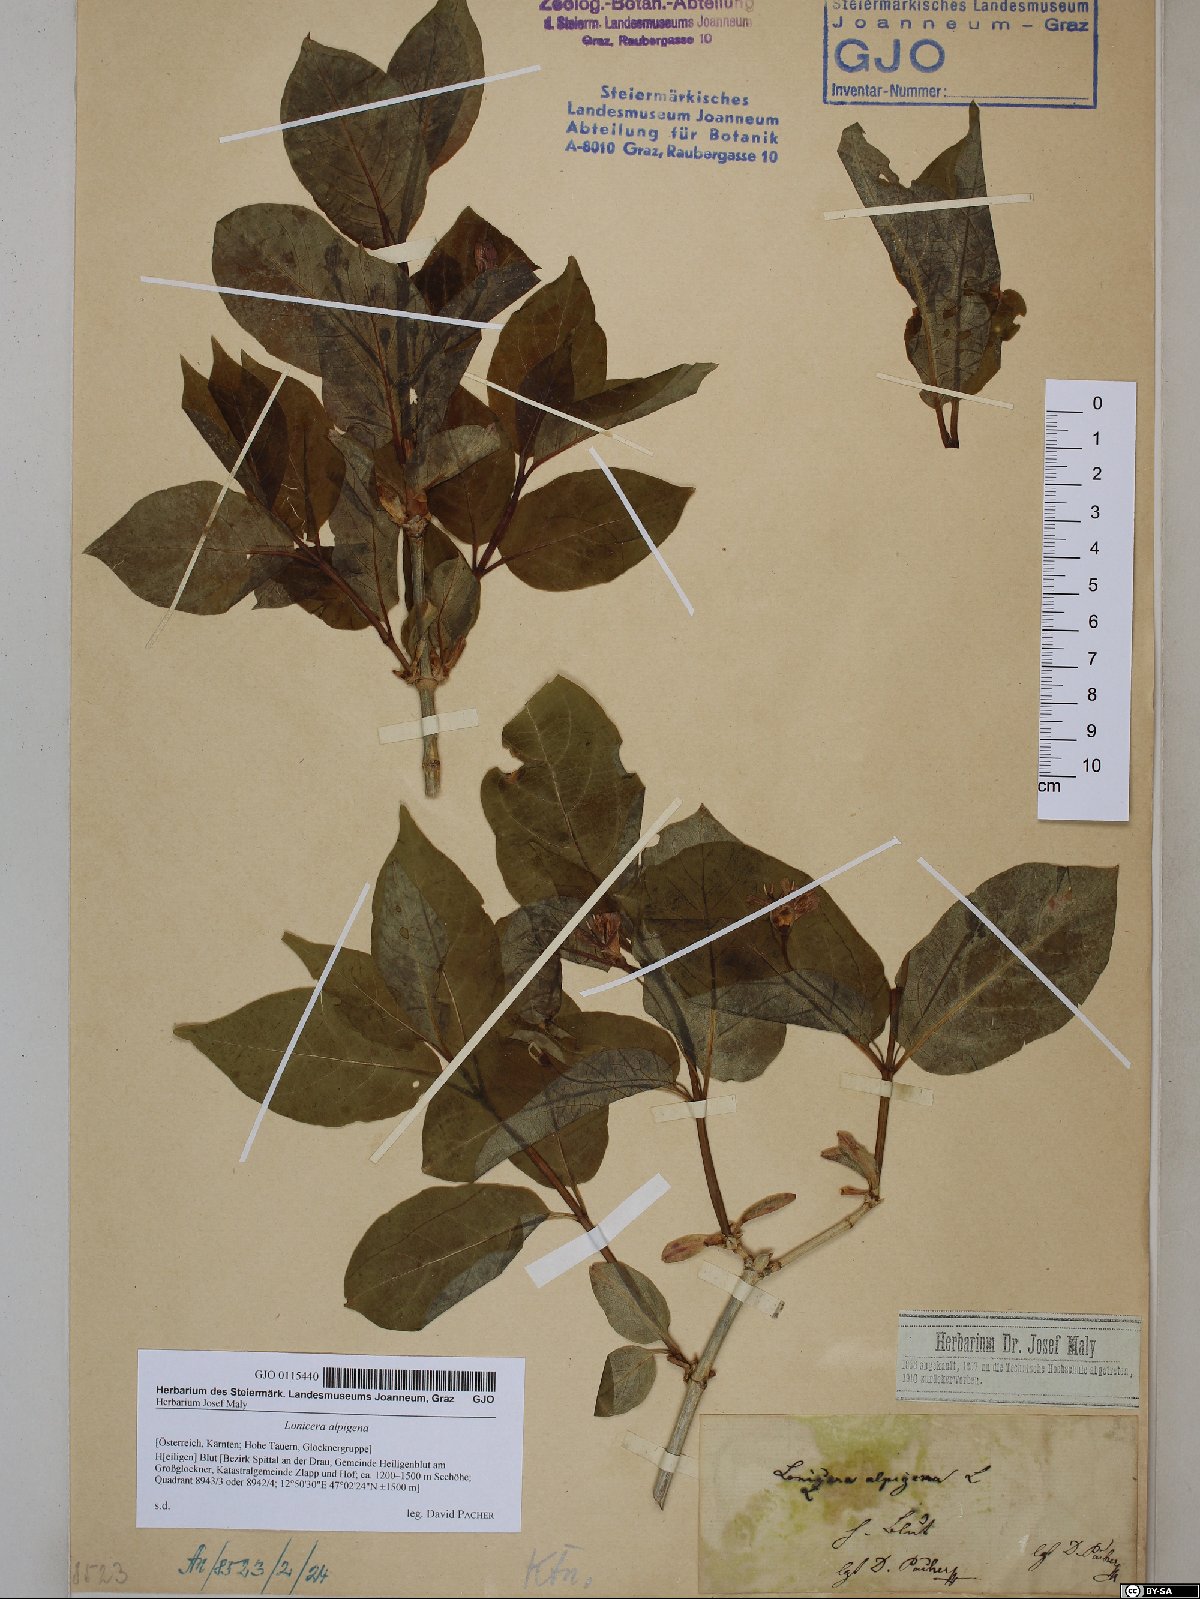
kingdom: Plantae
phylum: Tracheophyta
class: Magnoliopsida
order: Dipsacales
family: Caprifoliaceae
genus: Lonicera
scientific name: Lonicera alpigena
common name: Alpine honeysuckle
